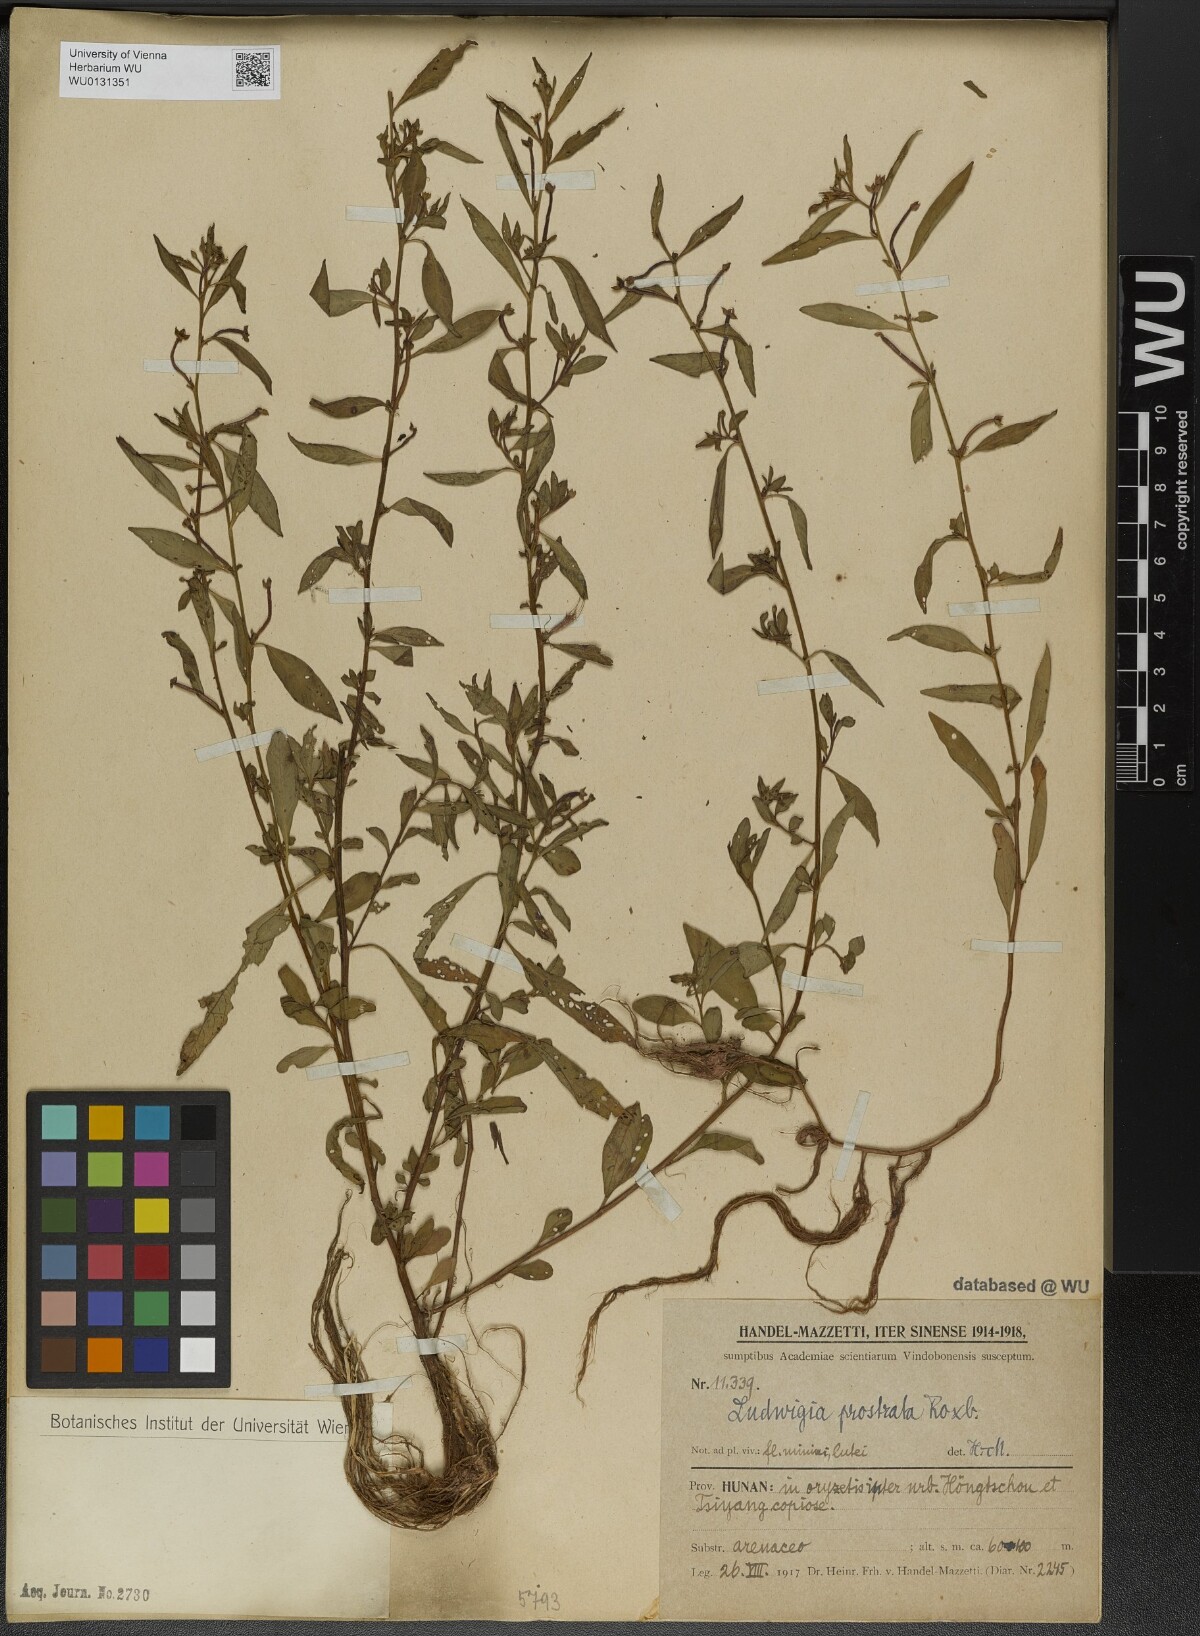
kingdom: Plantae
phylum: Tracheophyta
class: Magnoliopsida
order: Myrtales
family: Onagraceae
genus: Ludwigia
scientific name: Ludwigia prostrata
